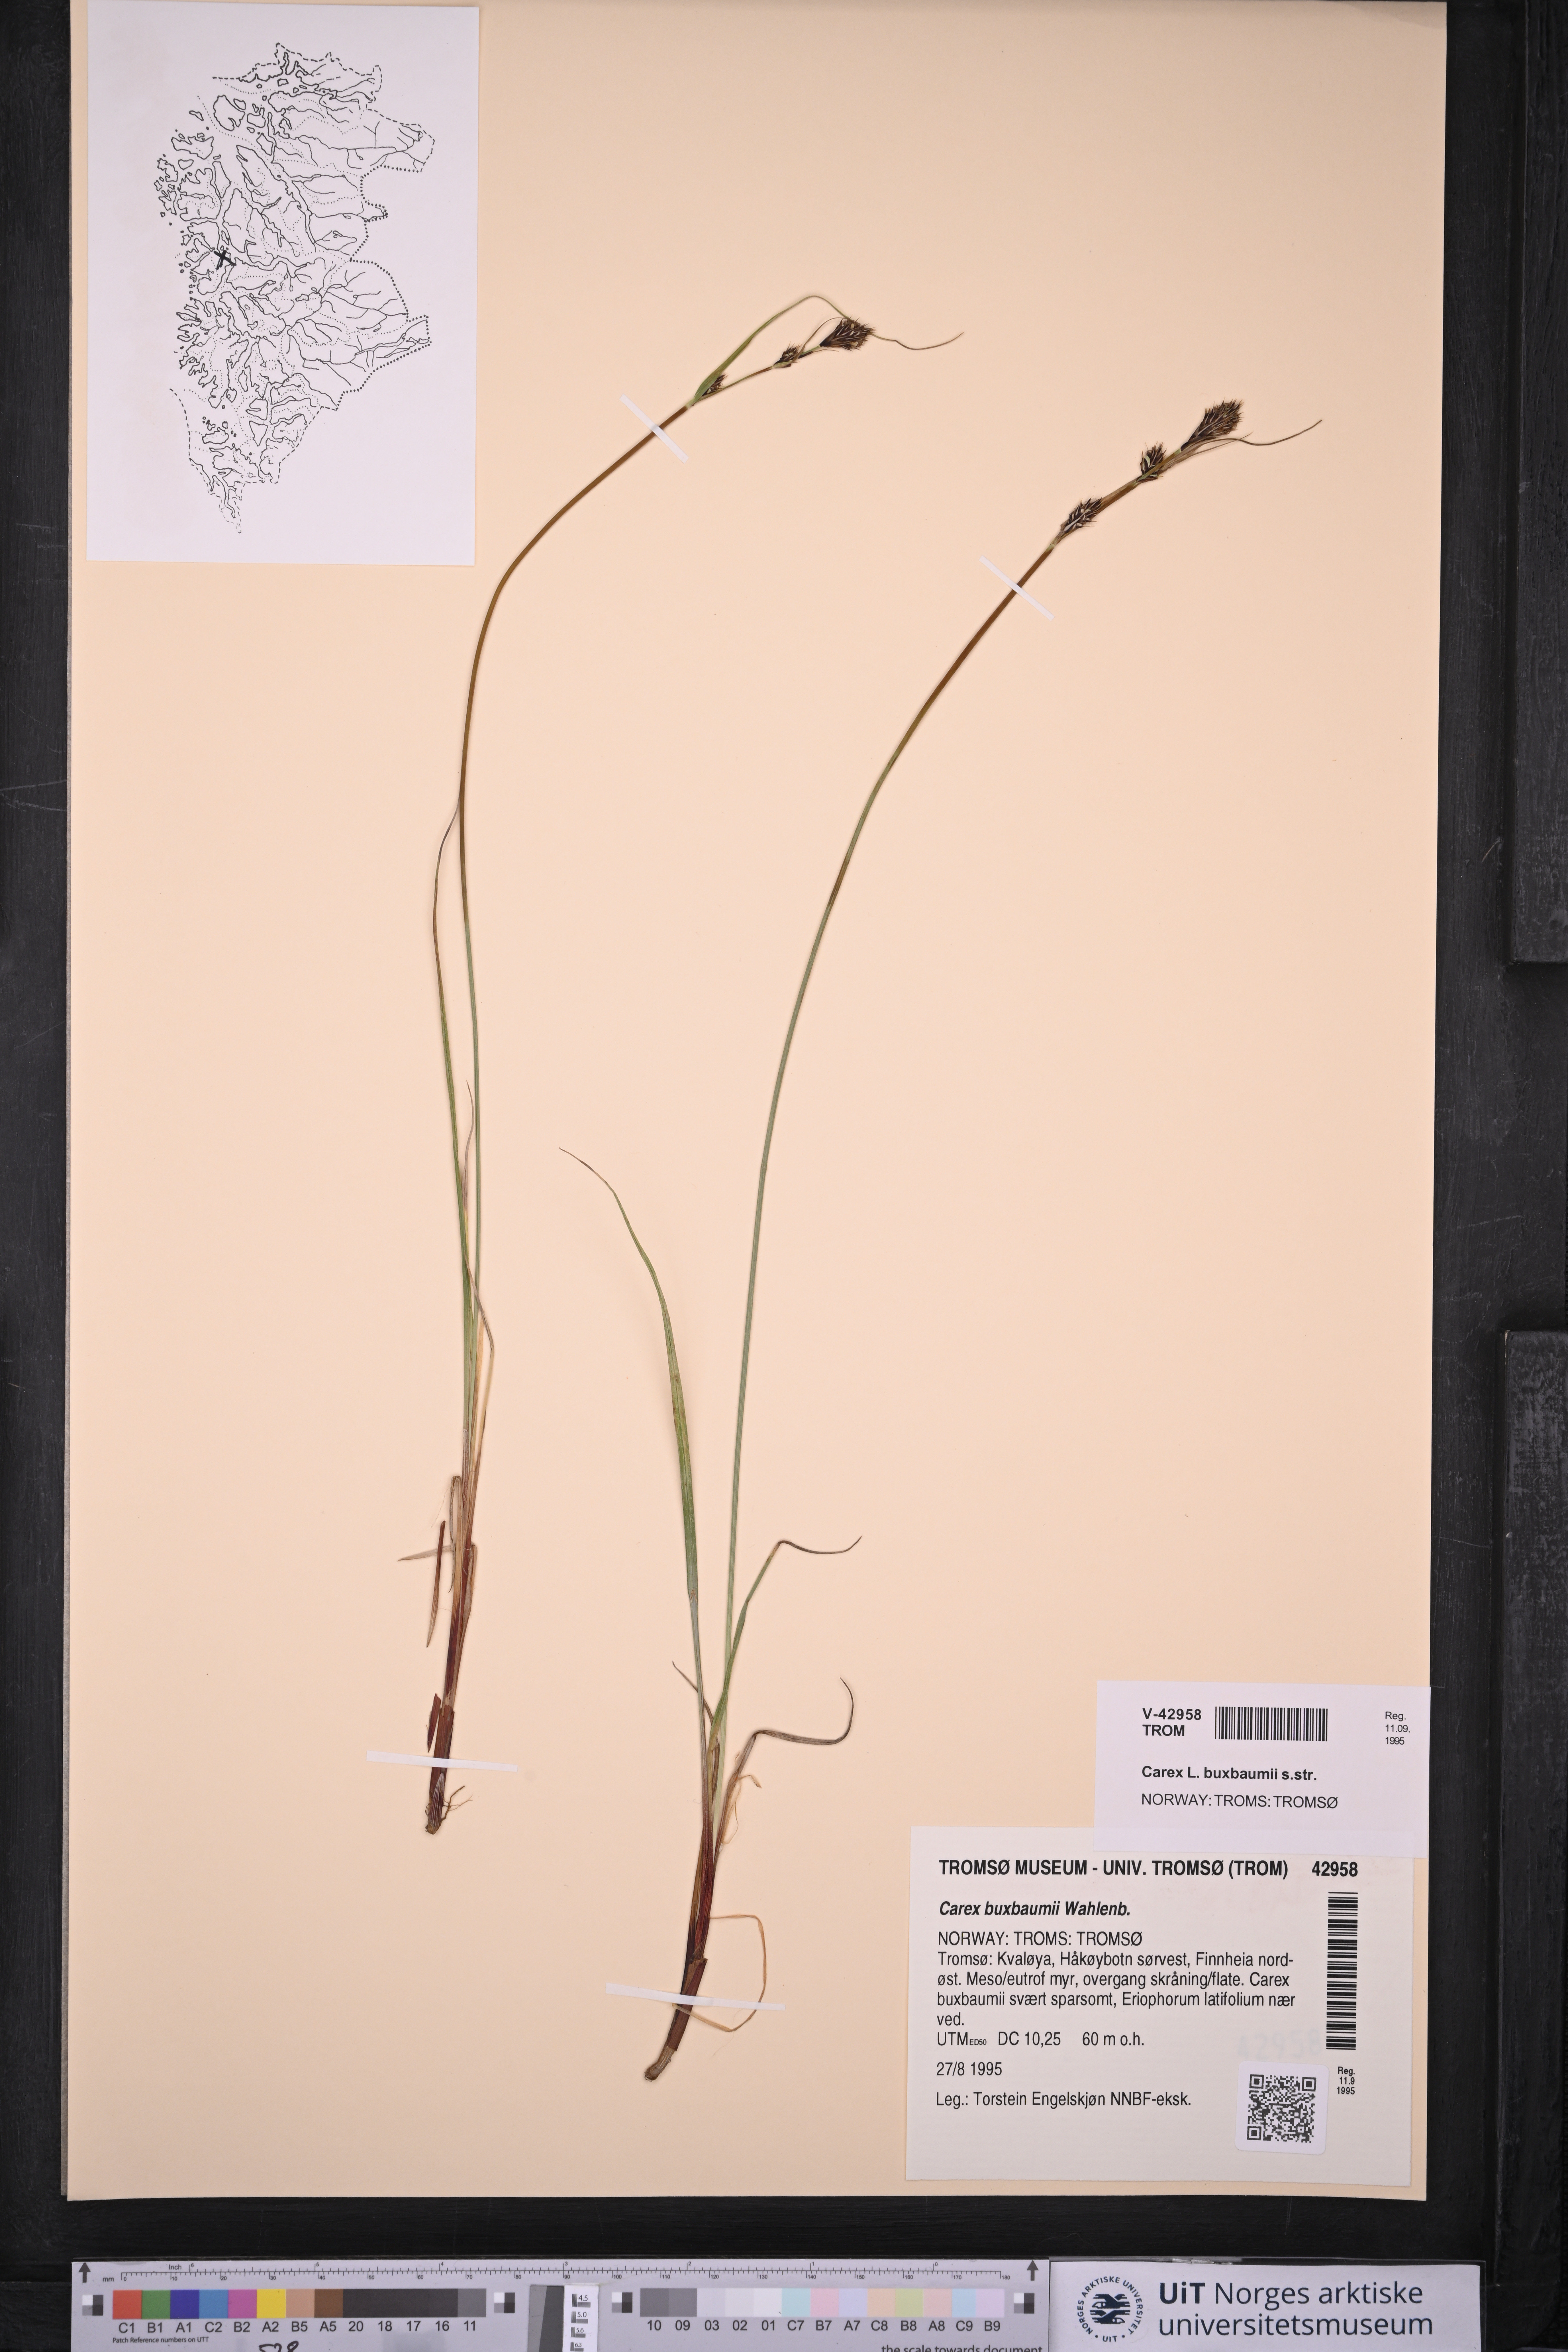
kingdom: Plantae
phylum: Tracheophyta
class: Liliopsida
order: Poales
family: Cyperaceae
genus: Carex
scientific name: Carex buxbaumii
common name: Club sedge
